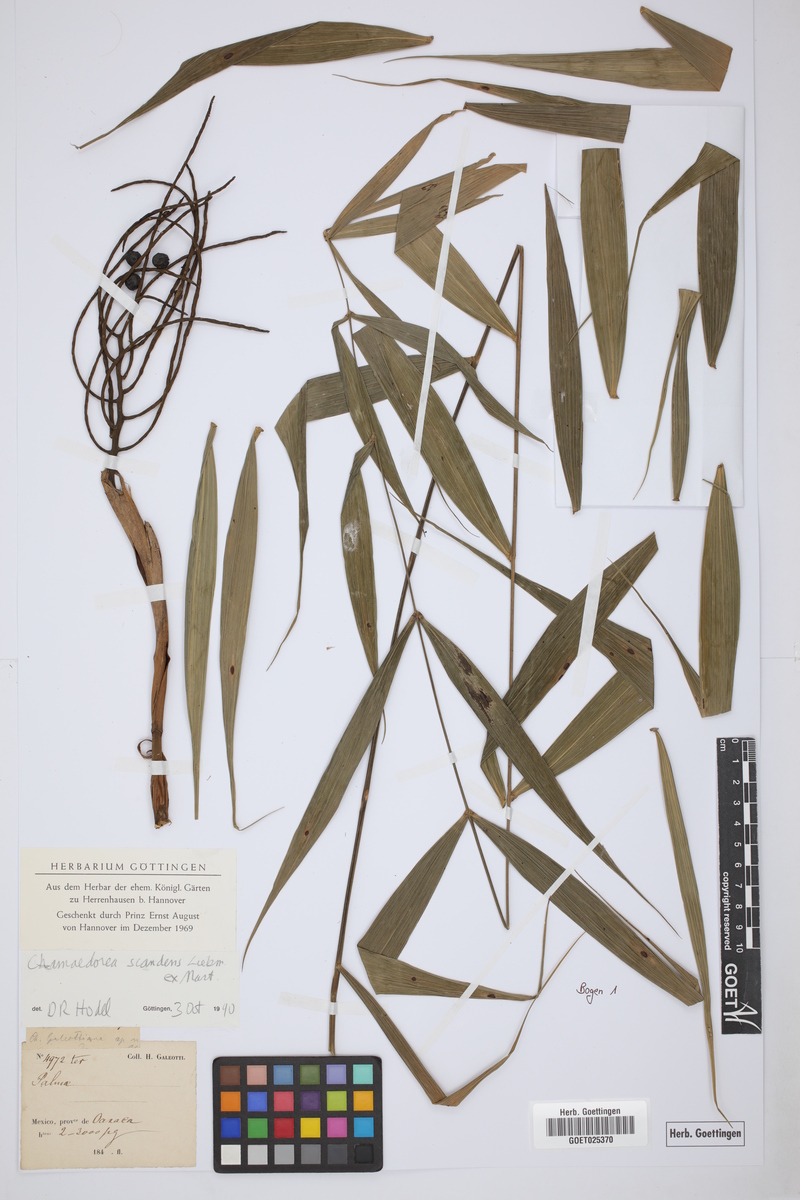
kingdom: Plantae
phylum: Tracheophyta
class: Liliopsida
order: Arecales
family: Arecaceae
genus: Chamaedorea
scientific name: Chamaedorea elatior
